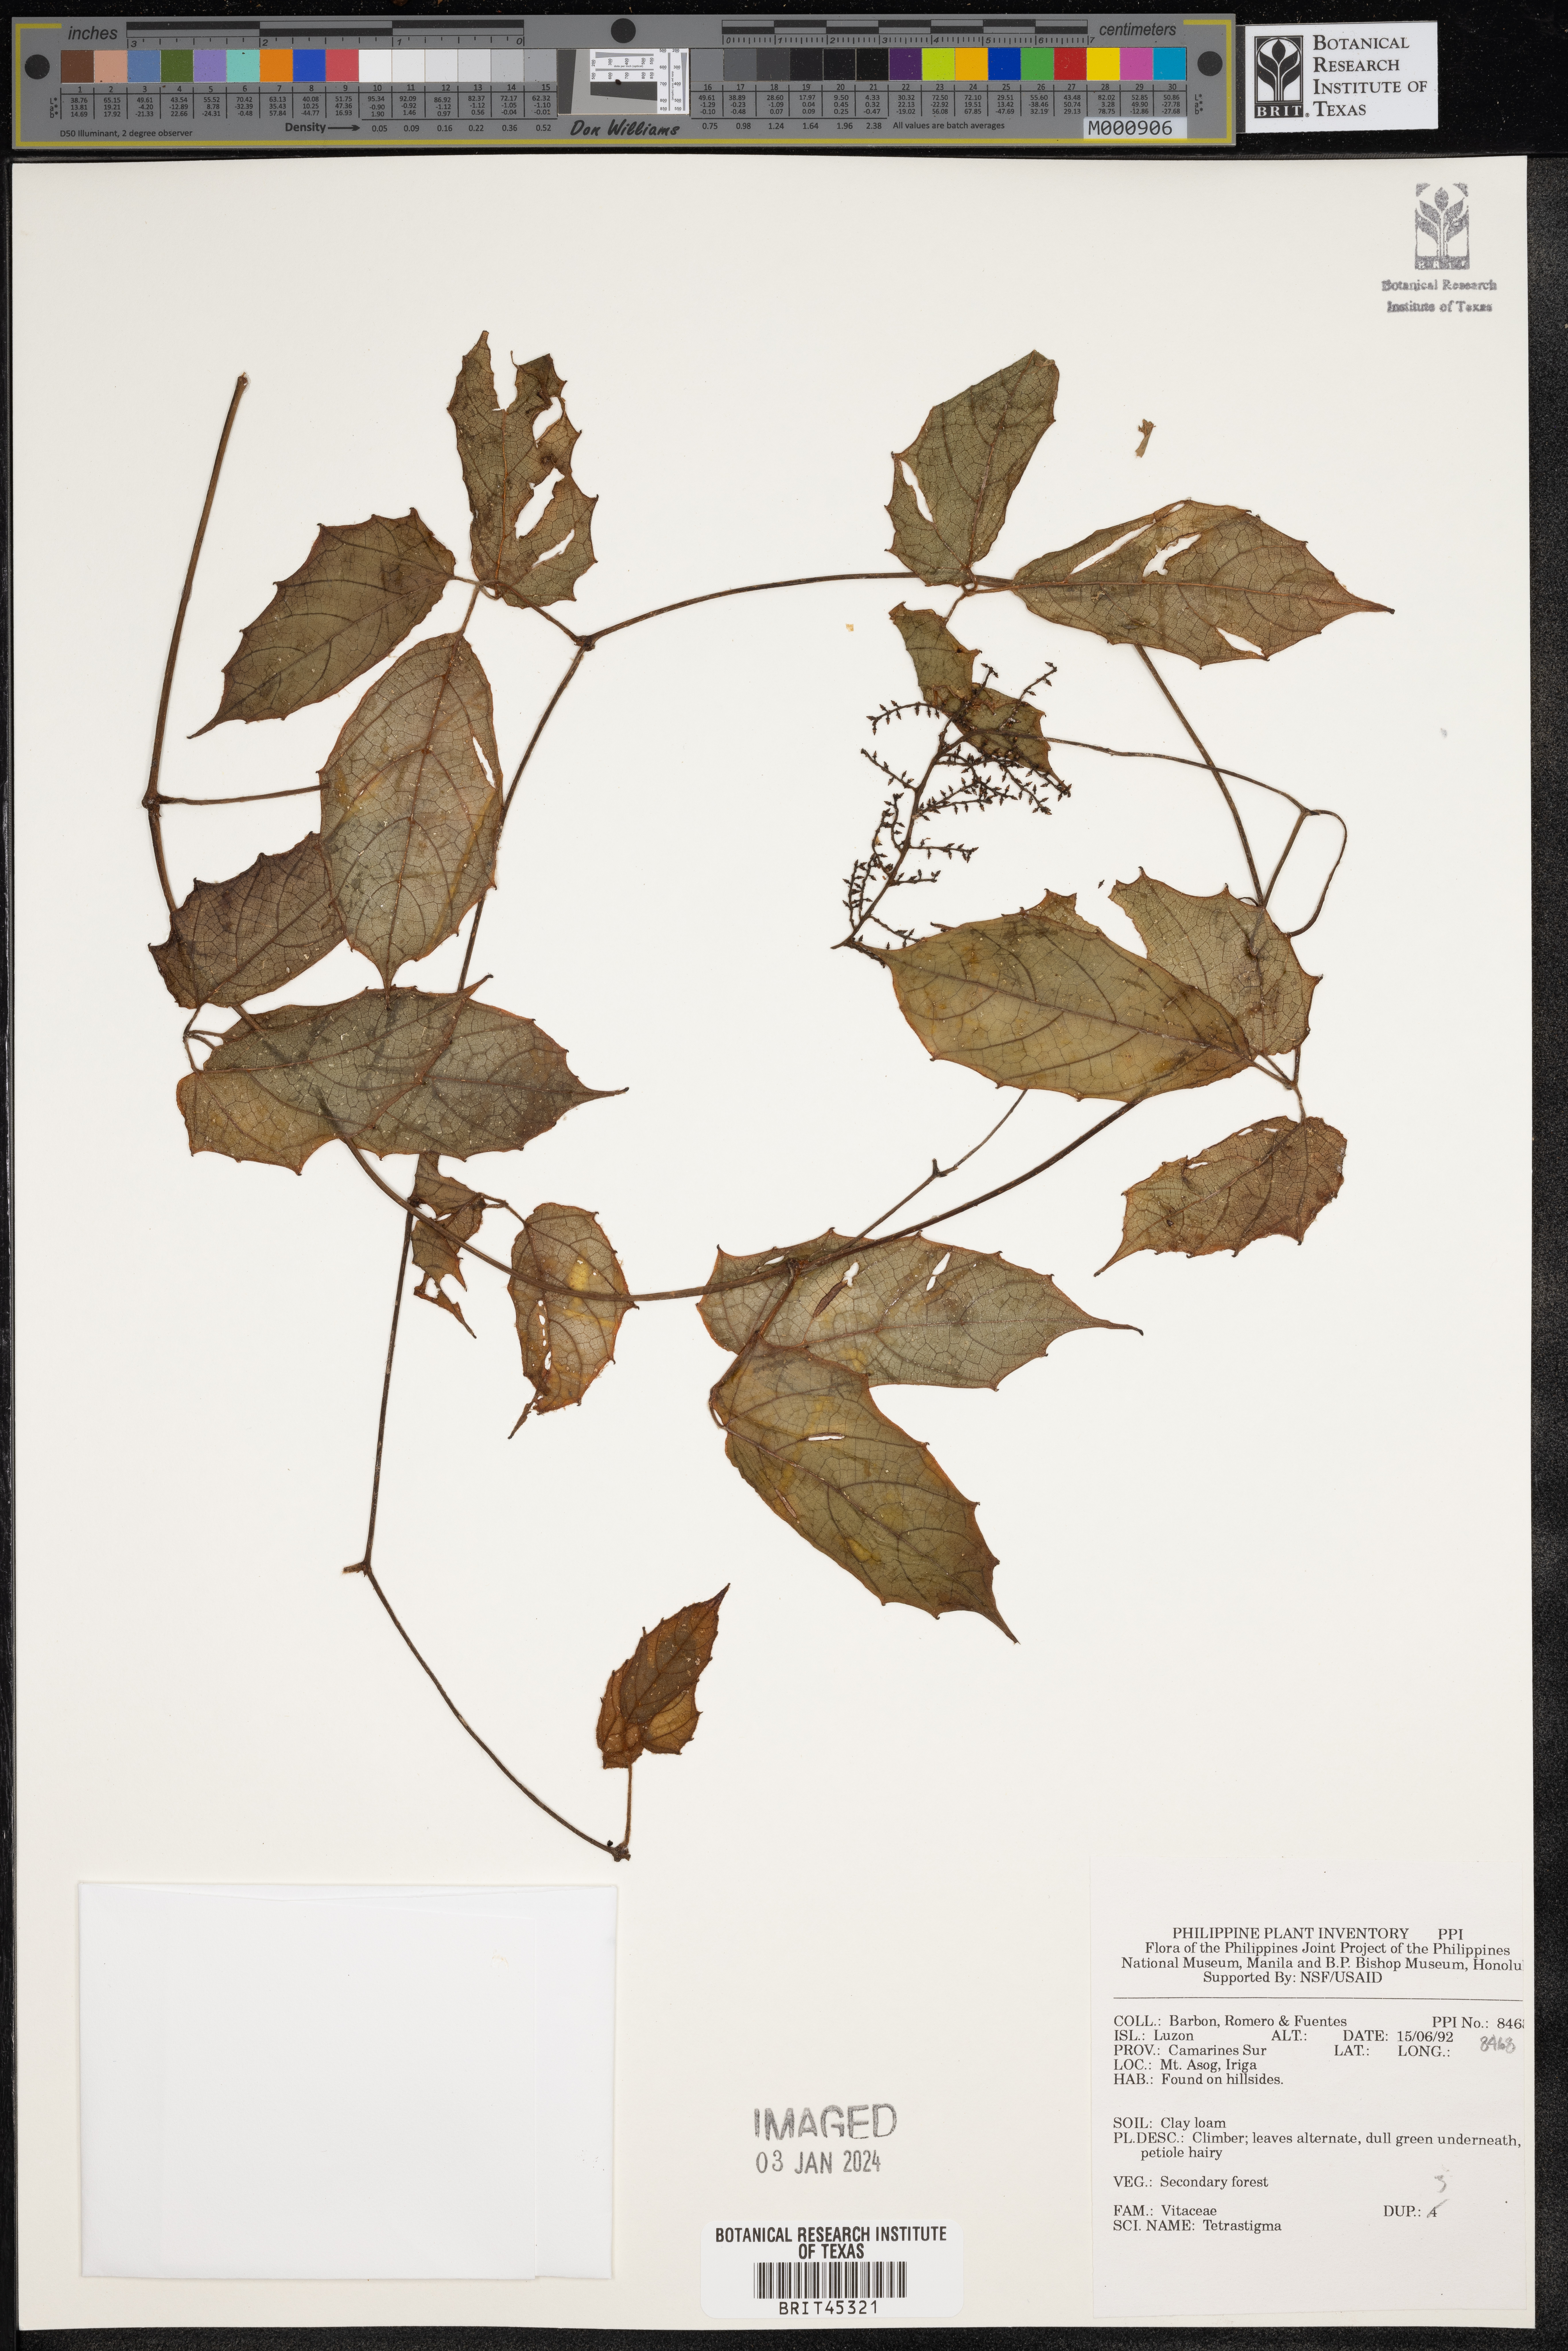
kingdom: Plantae
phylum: Tracheophyta
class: Magnoliopsida
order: Vitales
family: Vitaceae
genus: Tetrastigma
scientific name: Tetrastigma
